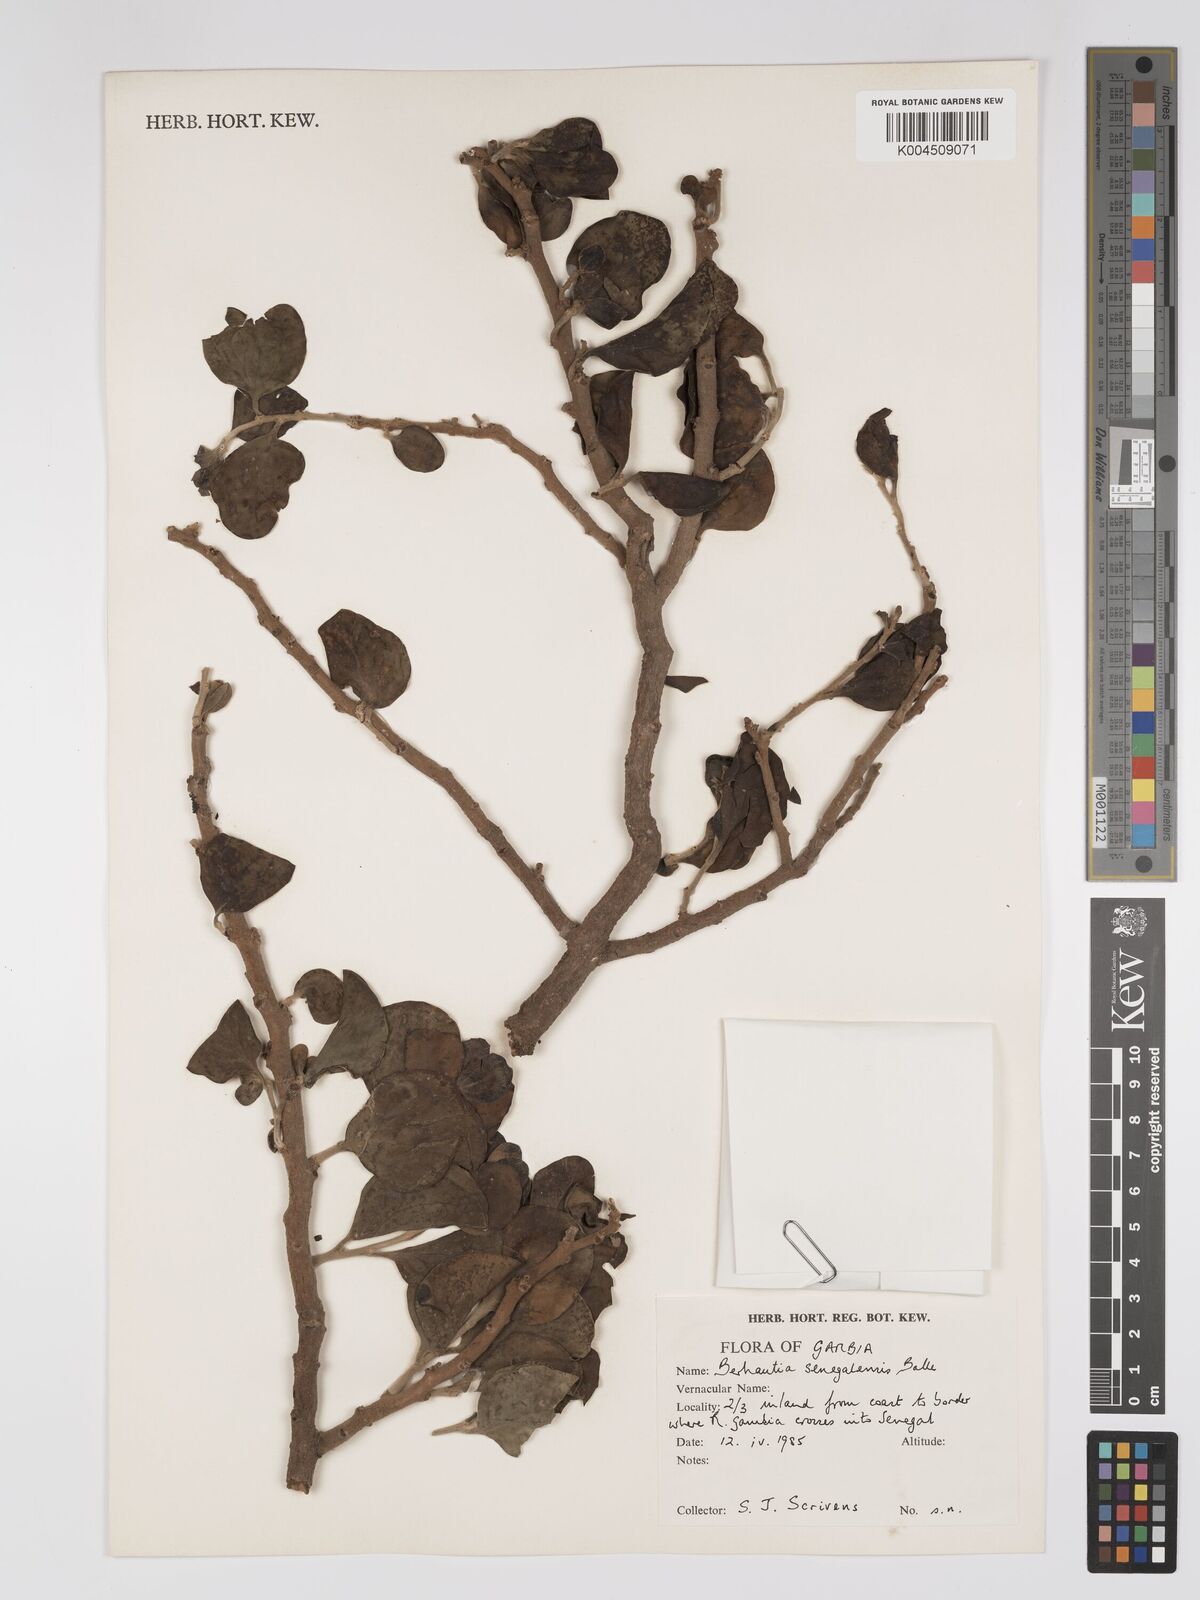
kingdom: Plantae
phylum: Tracheophyta
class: Magnoliopsida
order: Santalales
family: Loranthaceae
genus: Berhautia
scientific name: Berhautia
